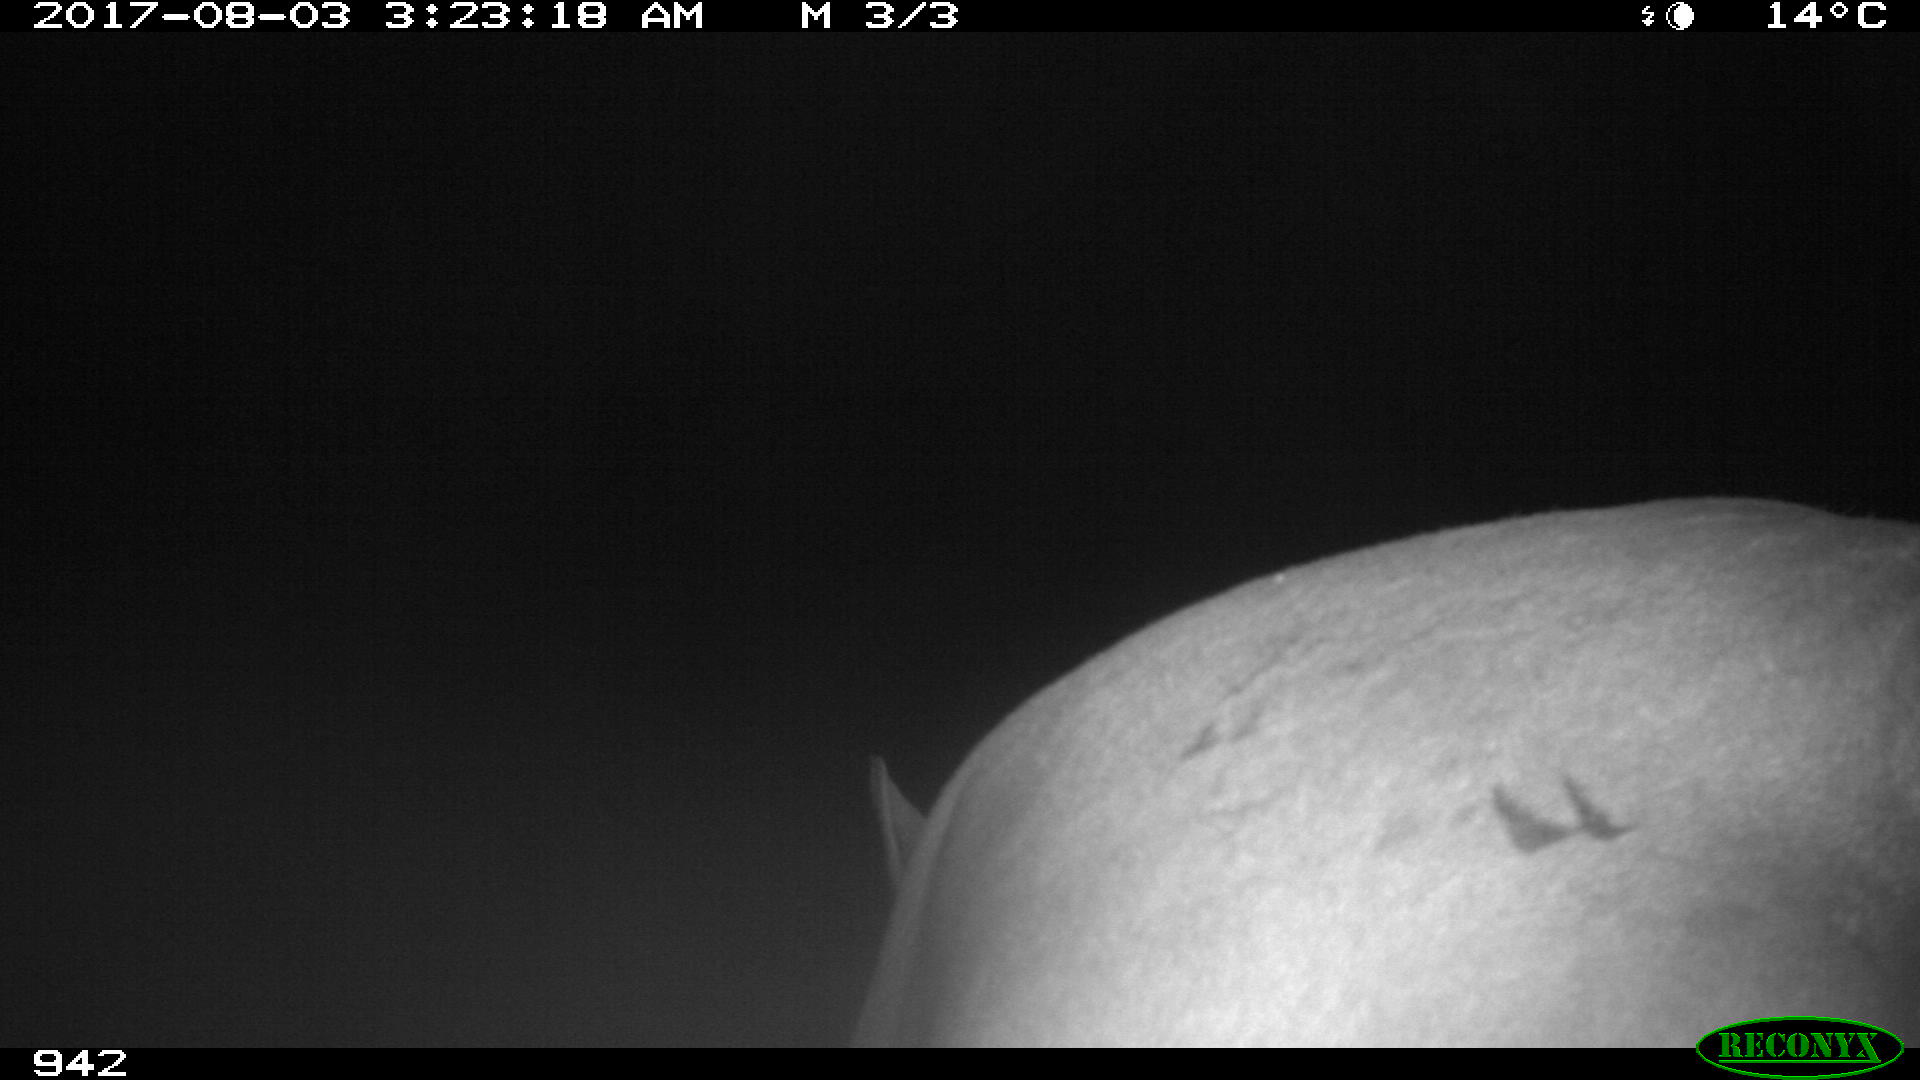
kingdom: Animalia
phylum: Chordata
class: Mammalia
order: Perissodactyla
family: Equidae
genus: Equus
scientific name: Equus caballus
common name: Horse
